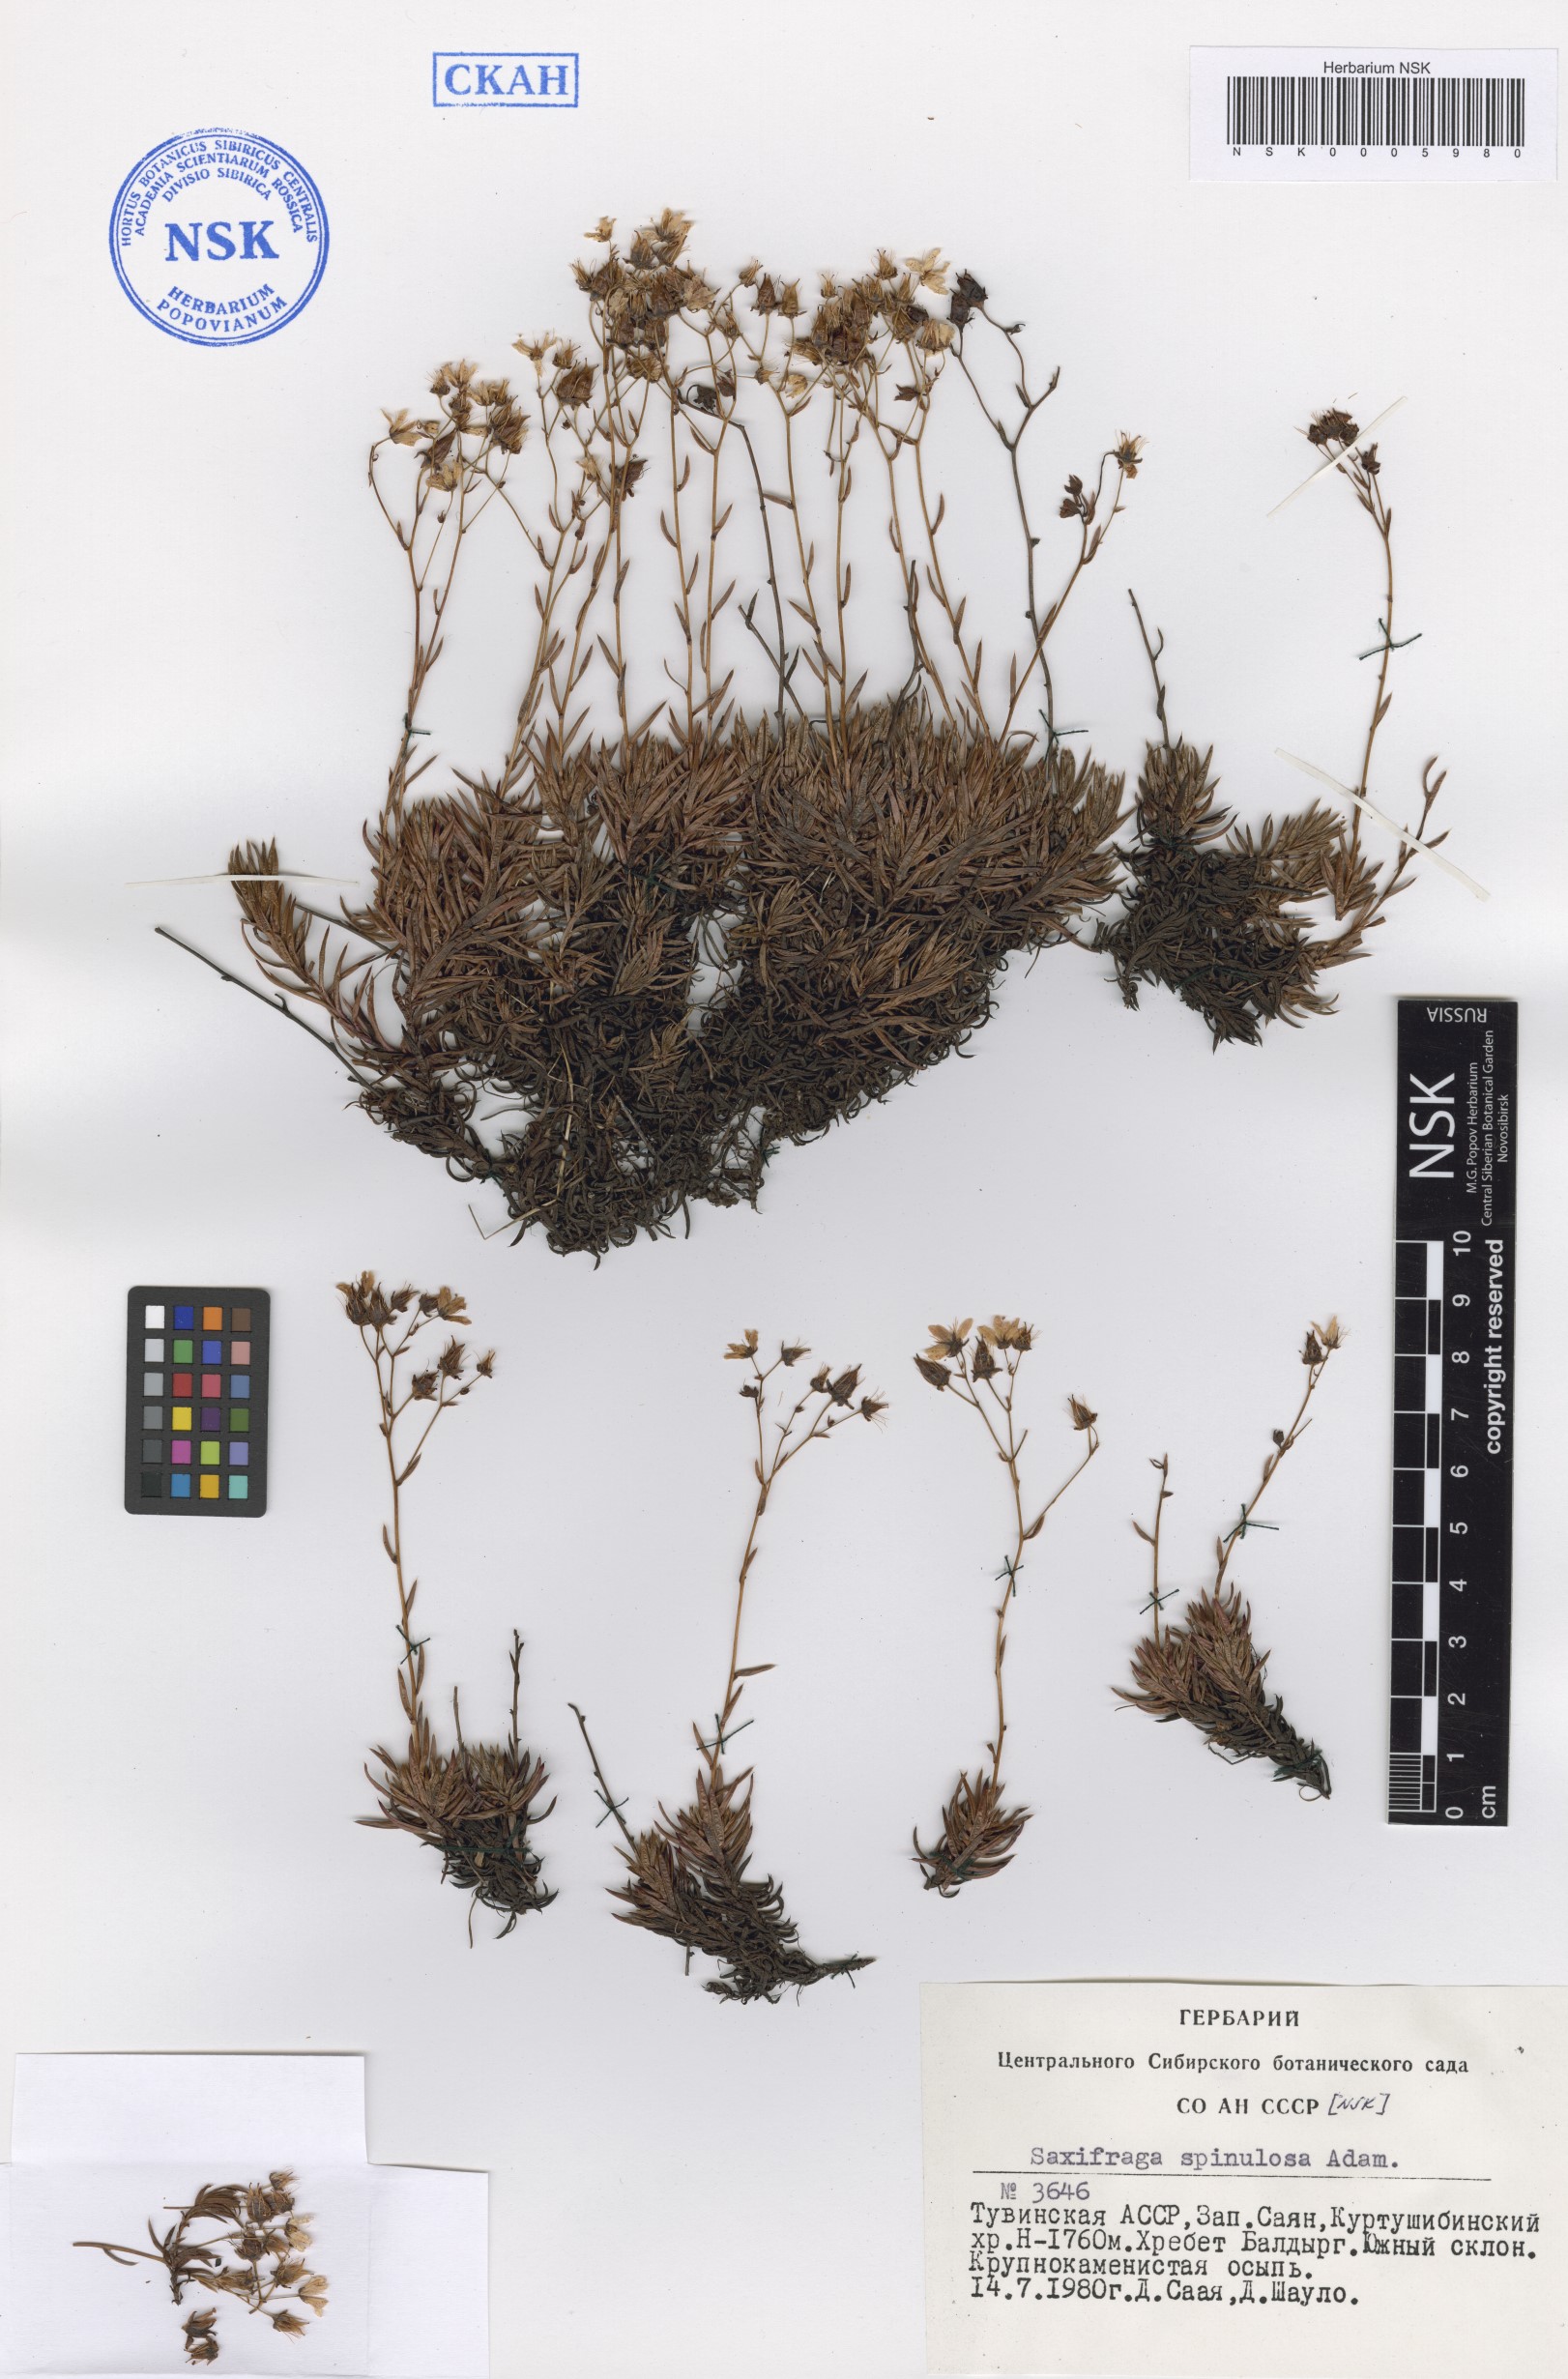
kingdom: Plantae
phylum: Tracheophyta
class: Magnoliopsida
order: Saxifragales
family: Saxifragaceae
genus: Saxifraga
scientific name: Saxifraga bronchialis
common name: Matted saxifrage
